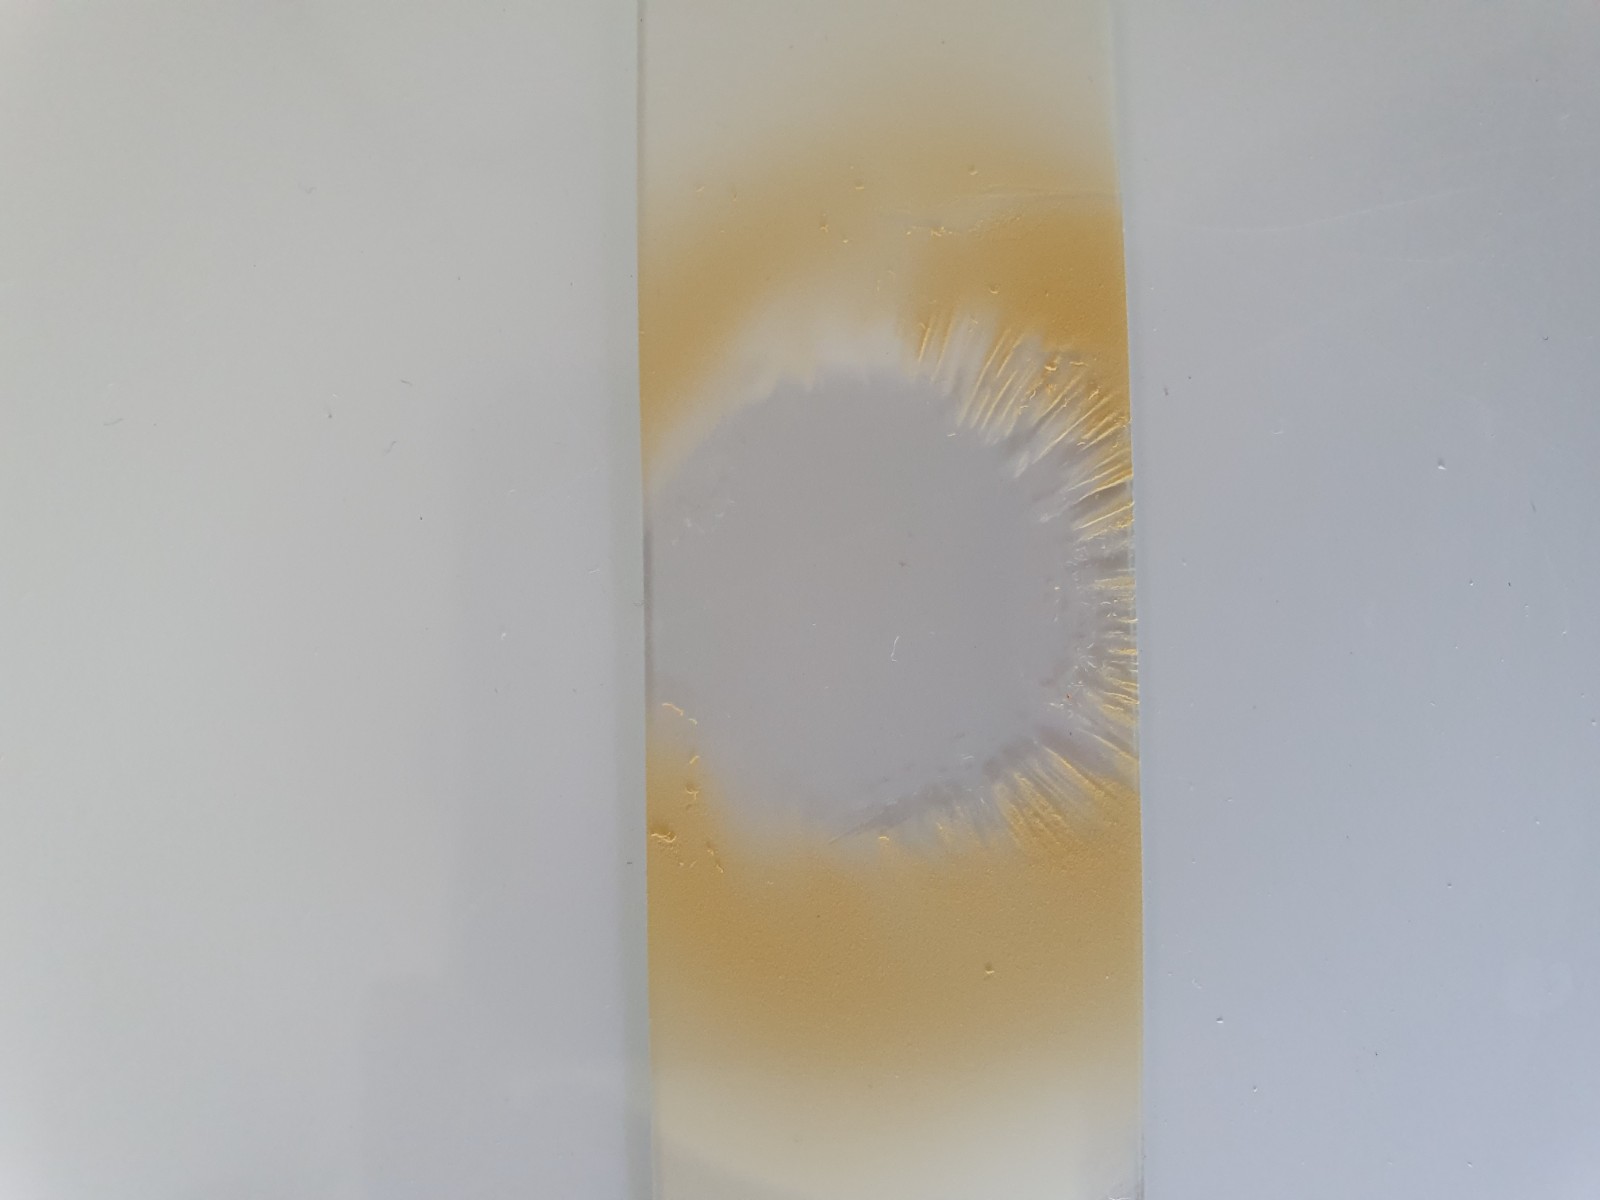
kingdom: Fungi
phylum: Basidiomycota
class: Agaricomycetes
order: Russulales
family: Russulaceae
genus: Russula
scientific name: Russula cessans
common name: fyrre-skørhat
